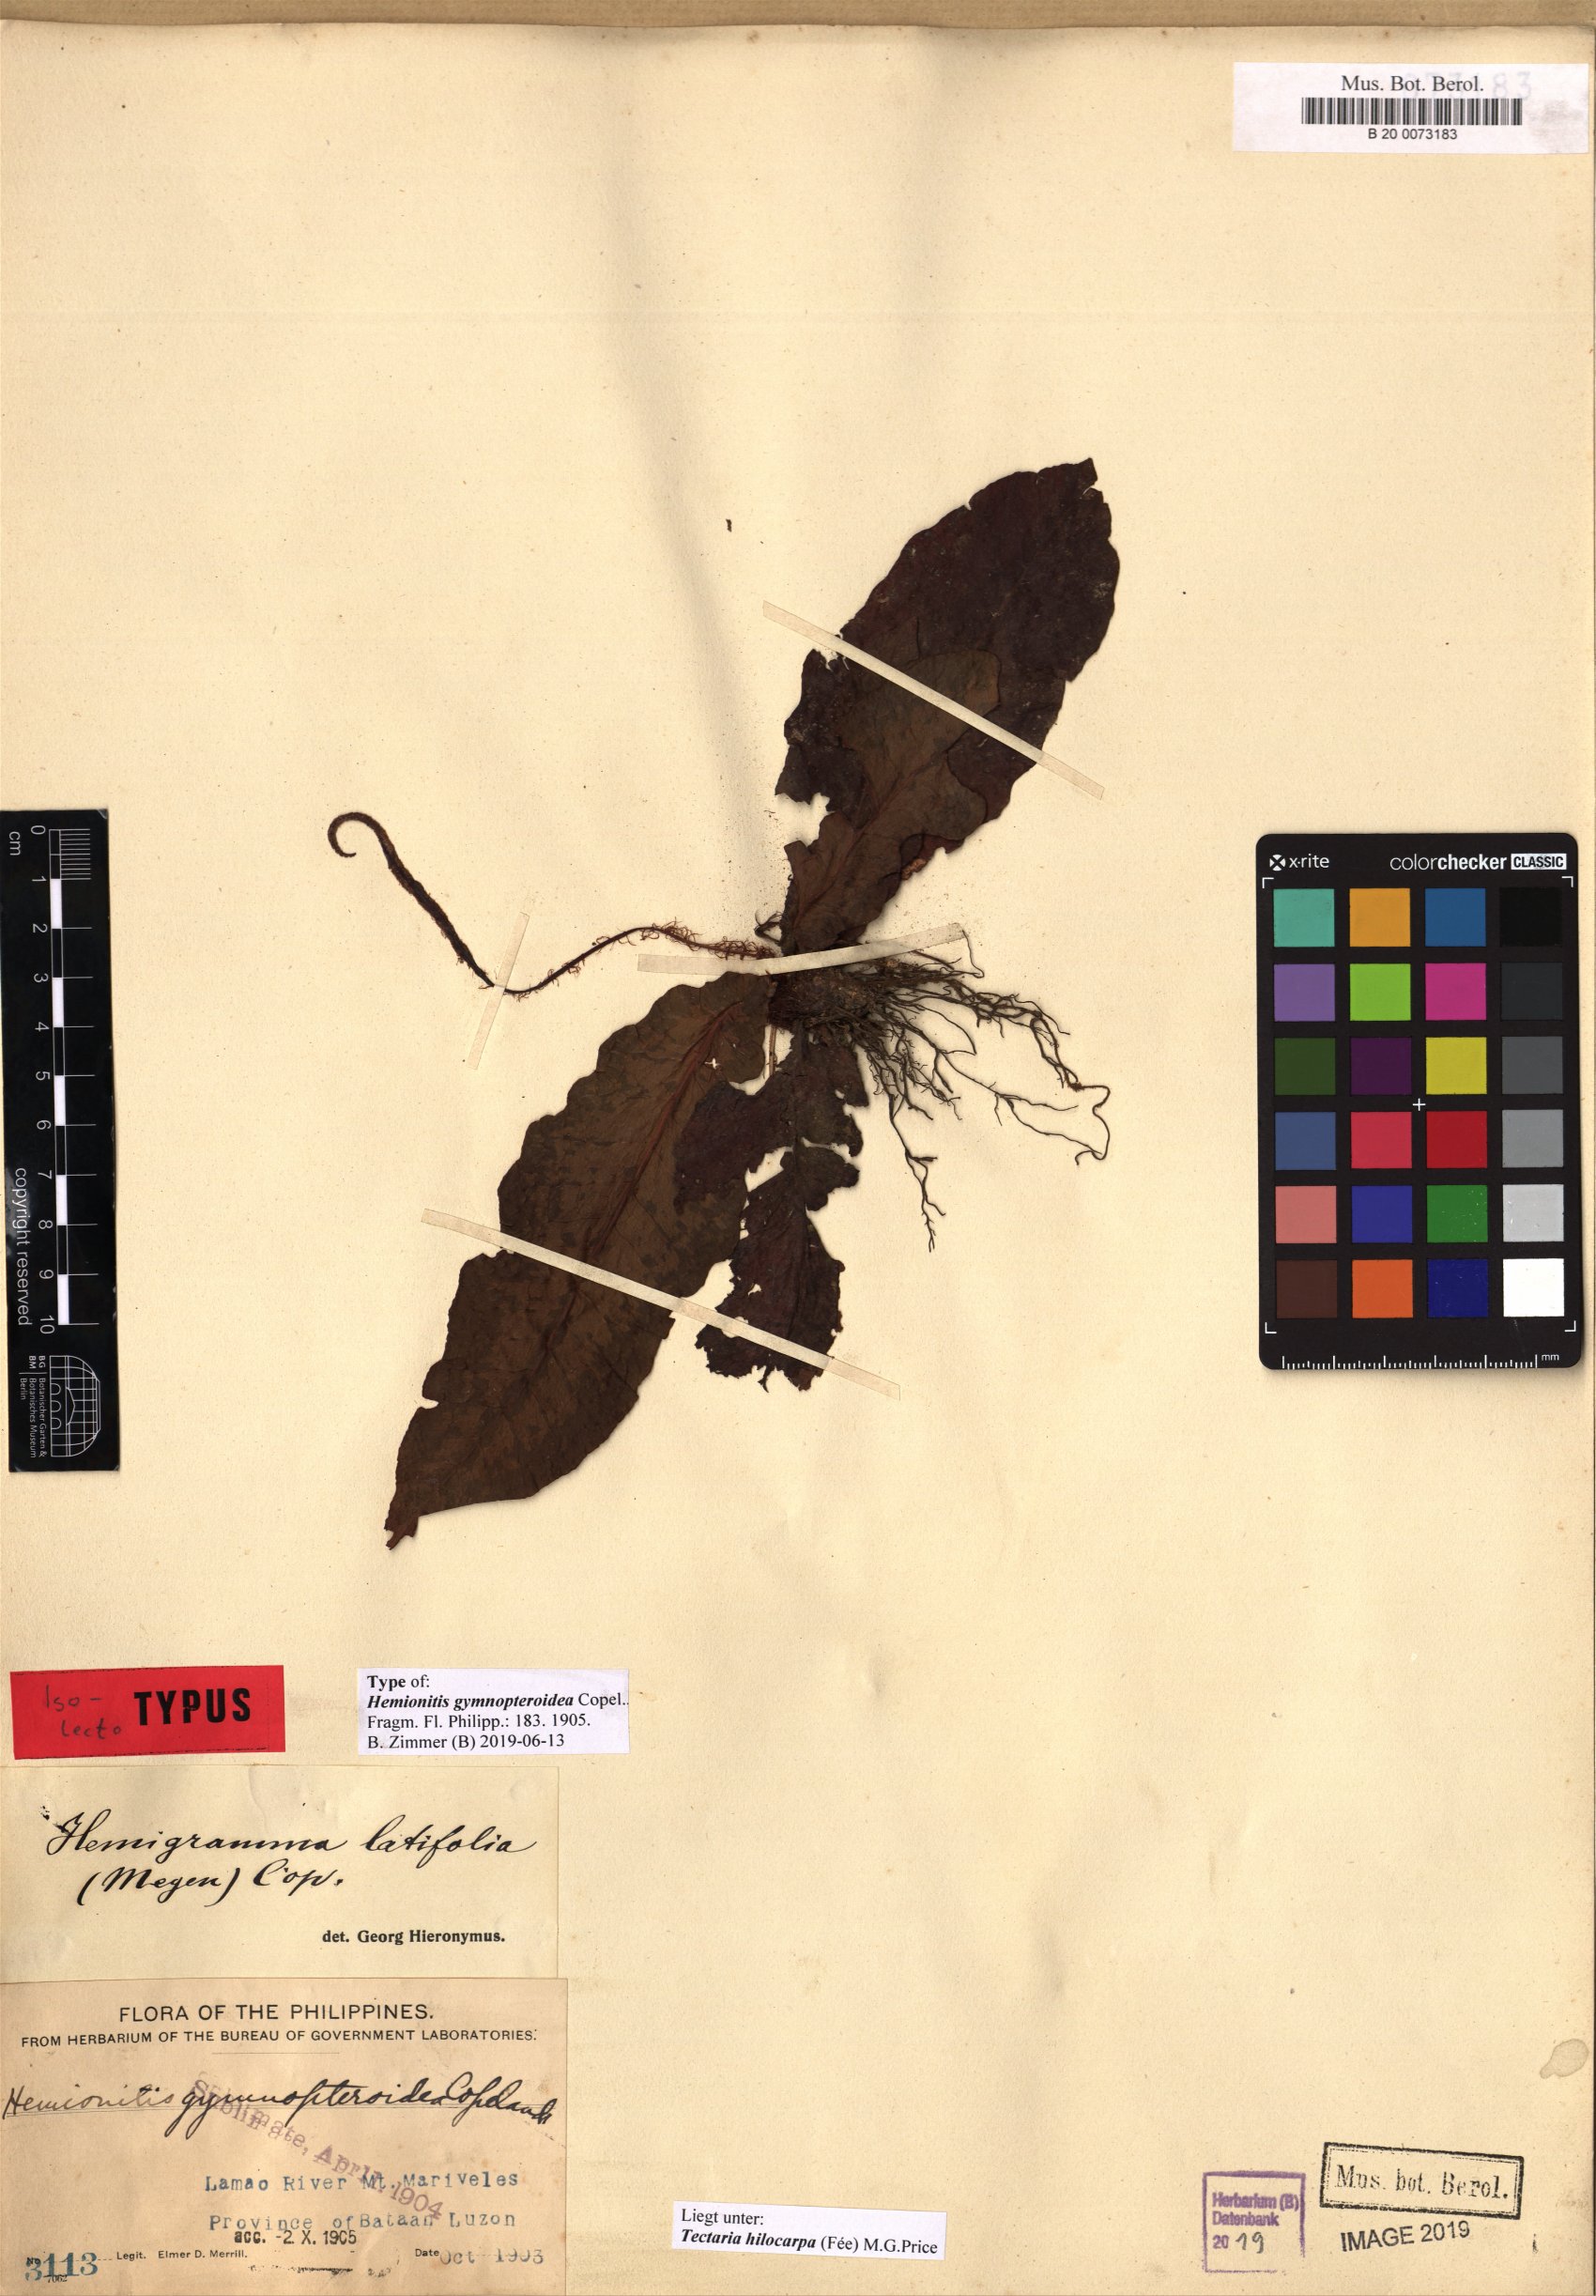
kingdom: Plantae
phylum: Tracheophyta
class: Polypodiopsida
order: Polypodiales
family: Tectariaceae
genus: Tectaria
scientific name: Tectaria hilocarpa
